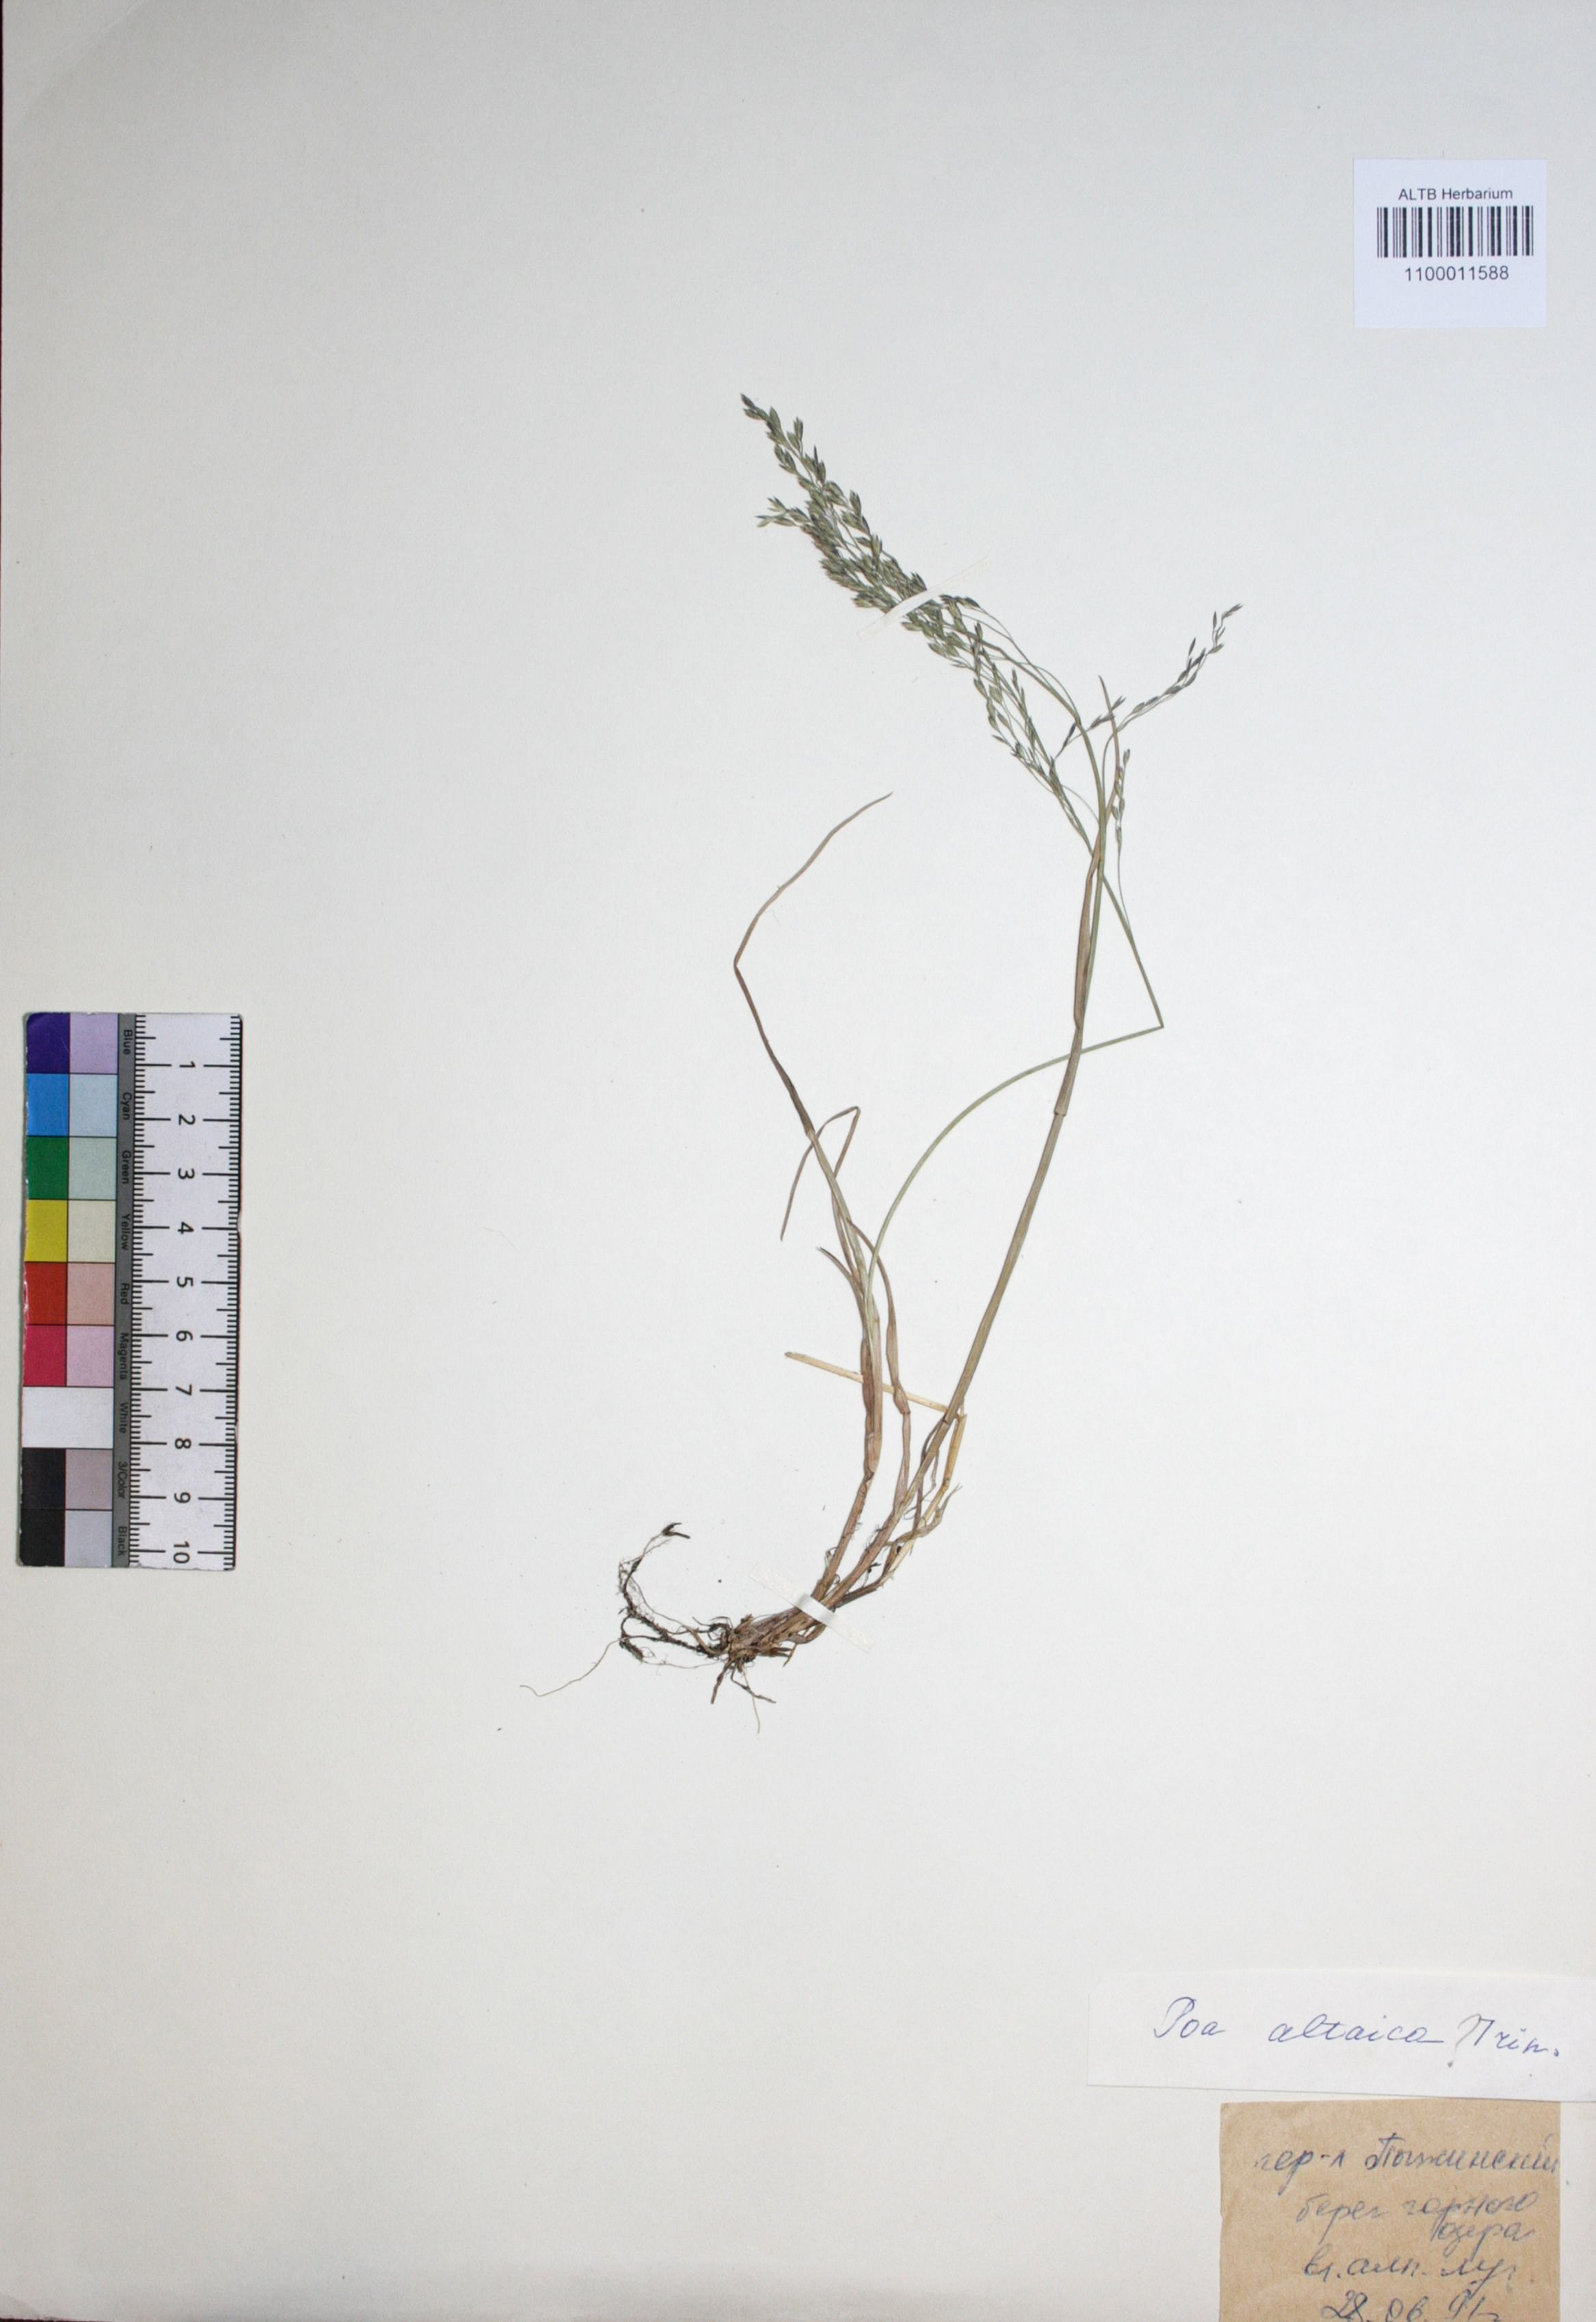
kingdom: Plantae
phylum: Tracheophyta
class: Liliopsida
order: Poales
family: Poaceae
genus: Poa
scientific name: Poa glauca
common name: Glaucous bluegrass
